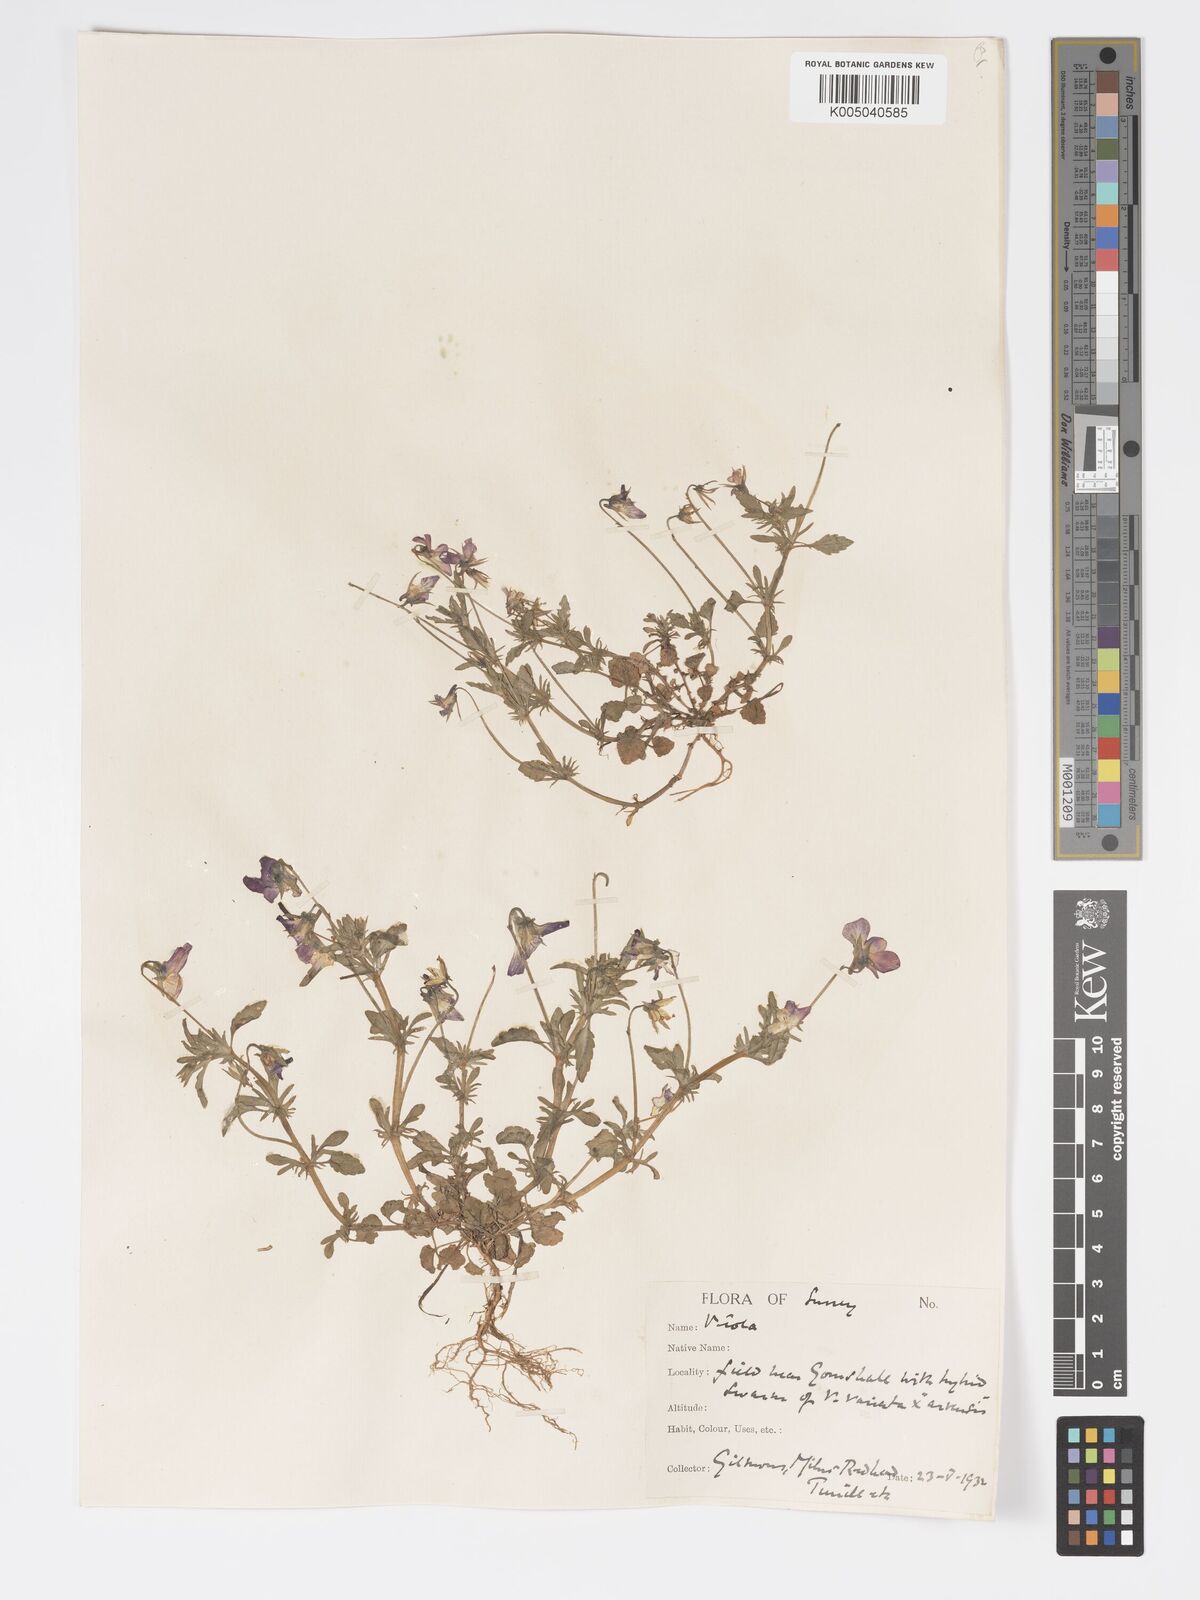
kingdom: Plantae
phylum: Tracheophyta
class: Magnoliopsida
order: Malpighiales
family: Violaceae
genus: Viola
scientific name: Viola
